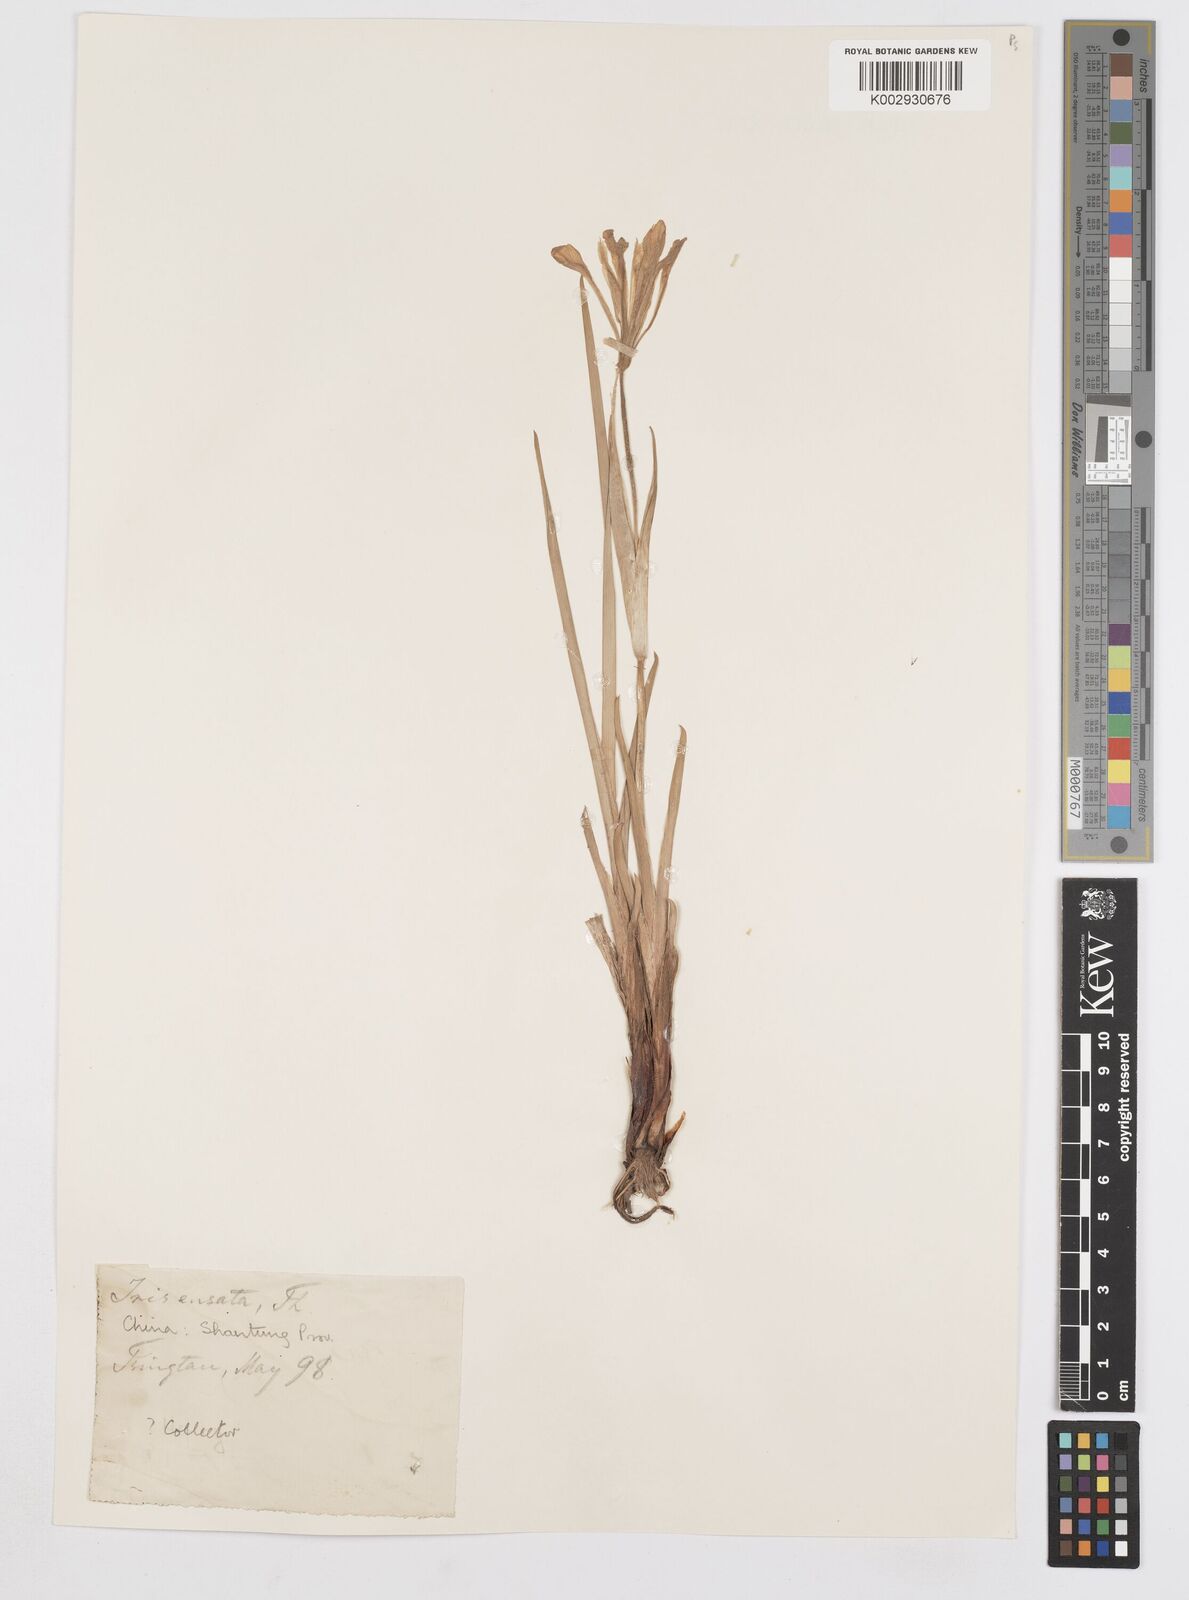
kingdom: Plantae
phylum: Tracheophyta
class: Liliopsida
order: Asparagales
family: Iridaceae
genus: Iris
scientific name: Iris ensata
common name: Beaked iris
